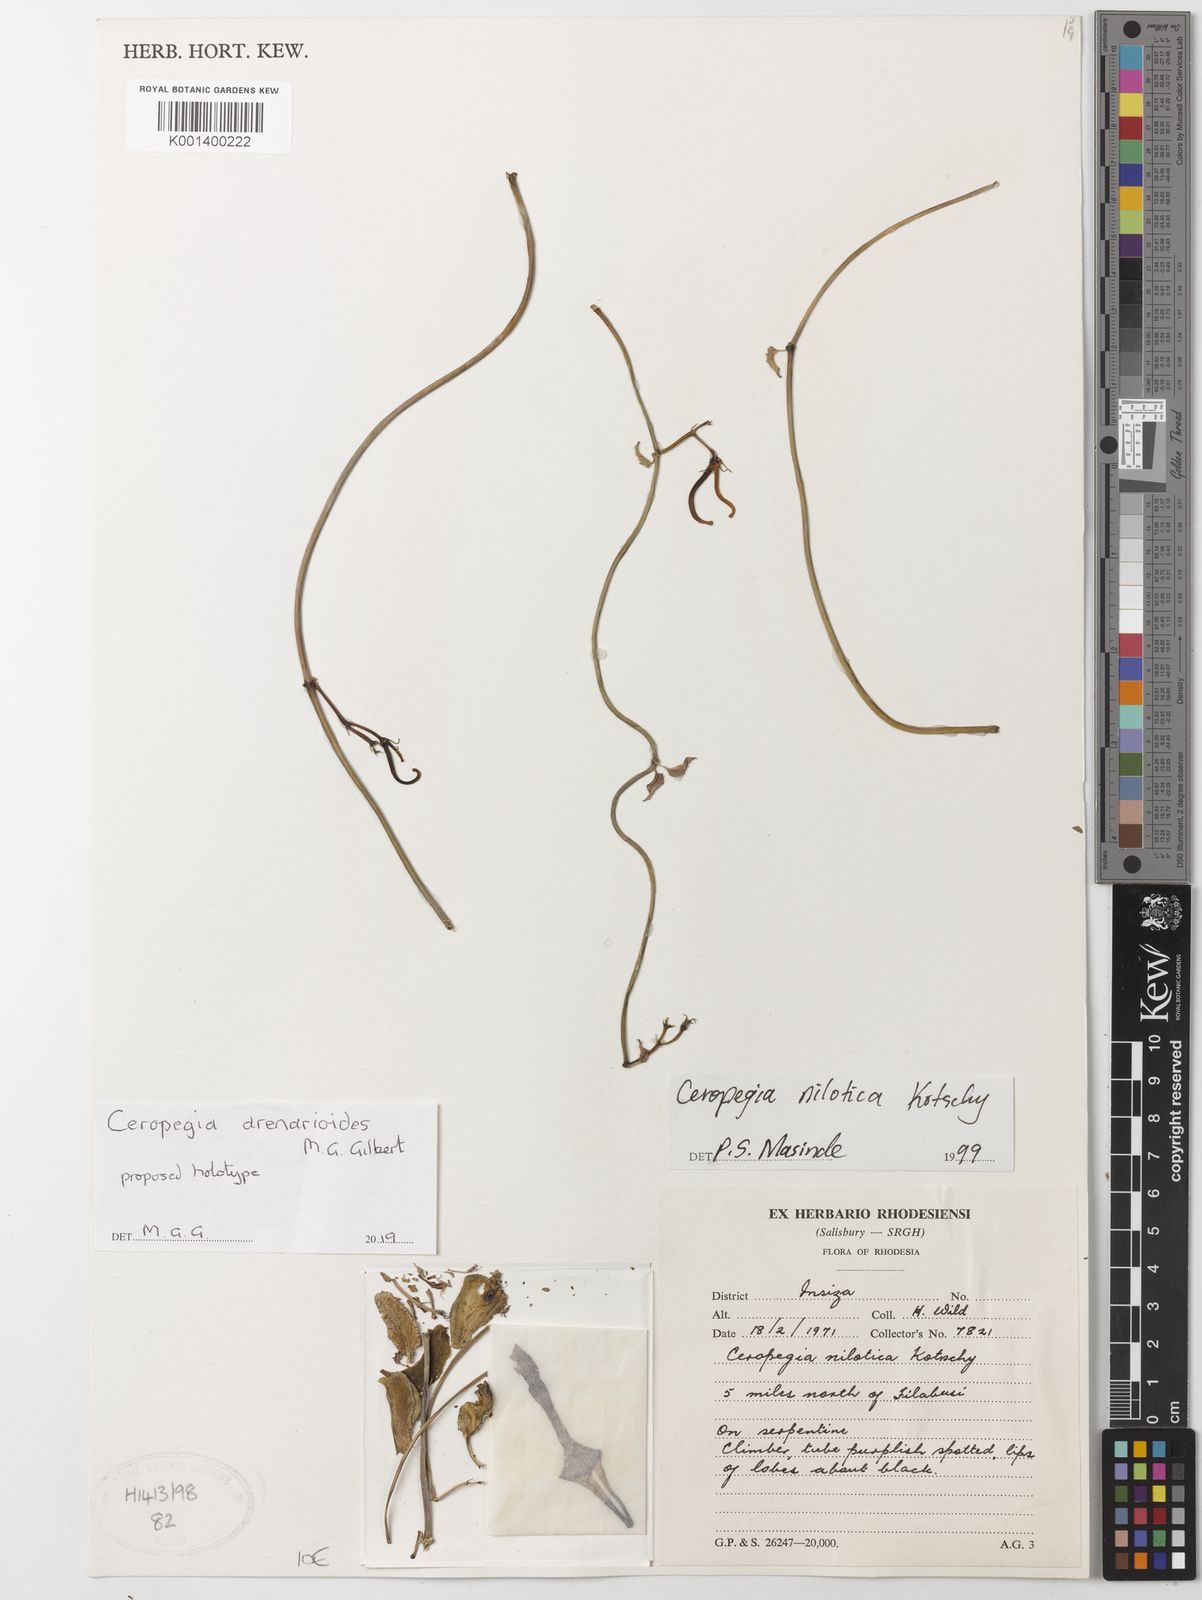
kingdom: Plantae
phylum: Tracheophyta
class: Magnoliopsida
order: Gentianales
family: Apocynaceae
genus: Ceropegia
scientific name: Ceropegia
